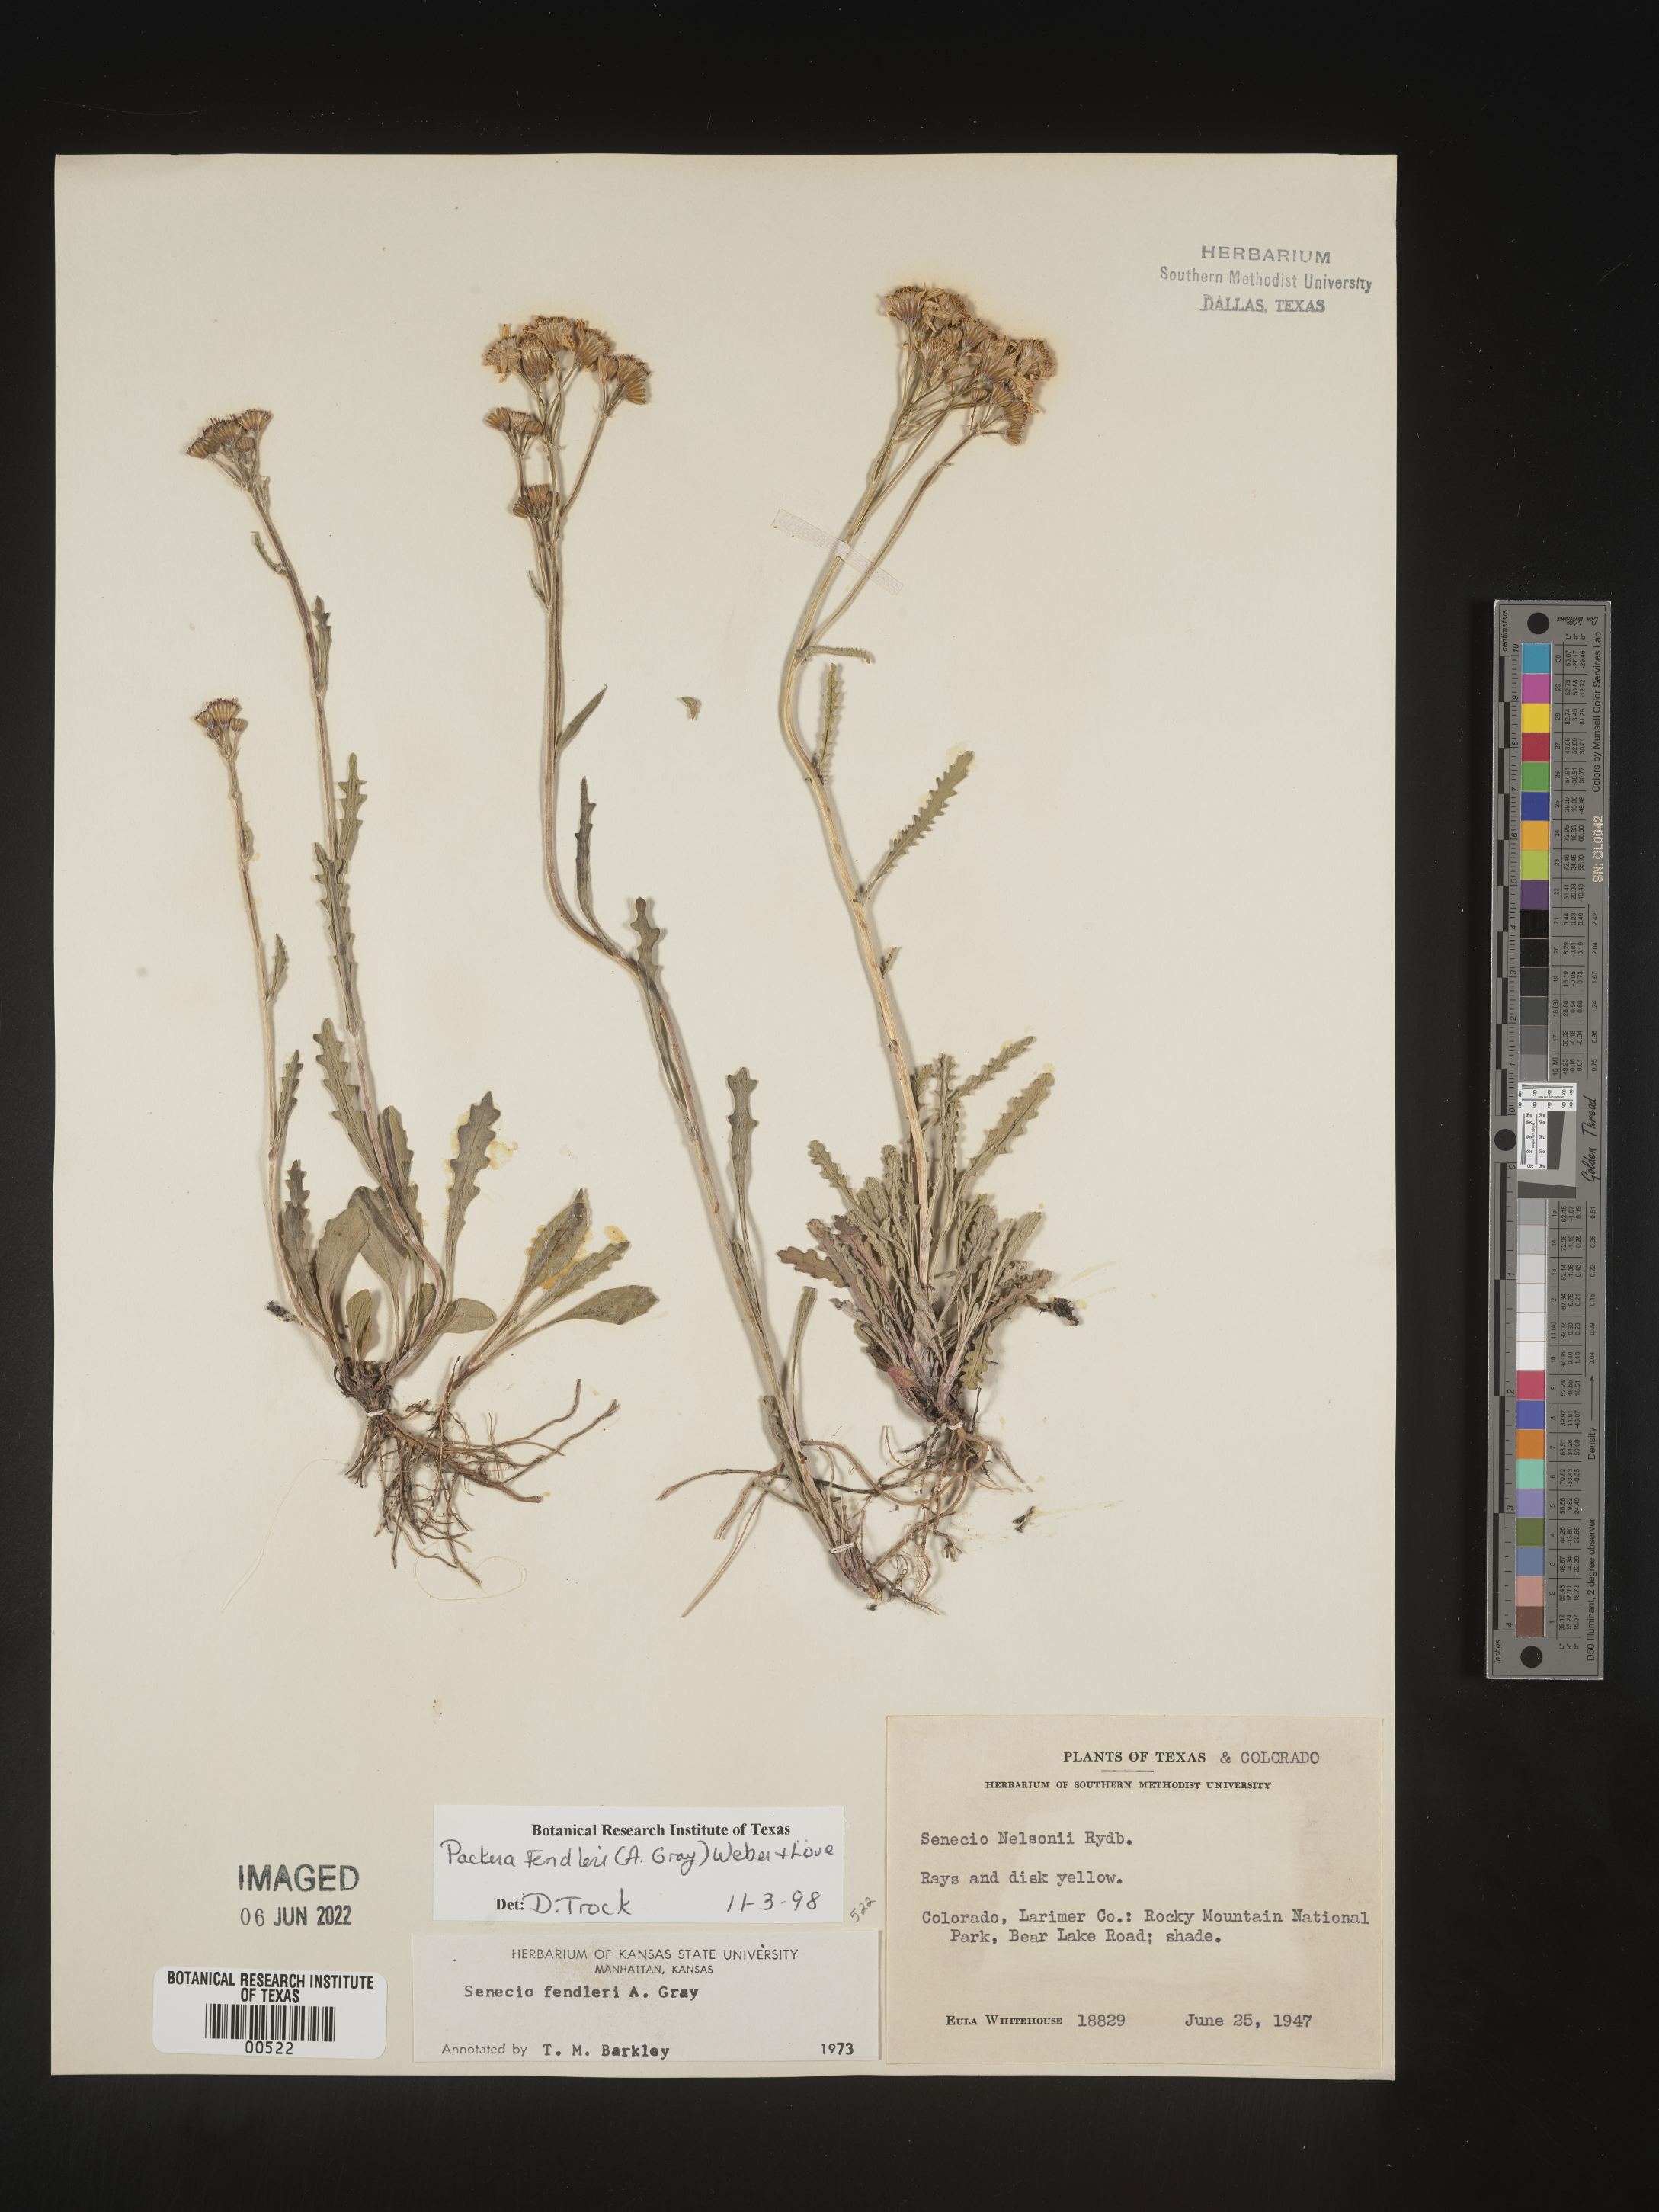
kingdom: Plantae
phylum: Tracheophyta
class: Magnoliopsida
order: Asterales
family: Asteraceae
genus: Packera
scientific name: Packera fendleri
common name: Notch-leaf butterweed
